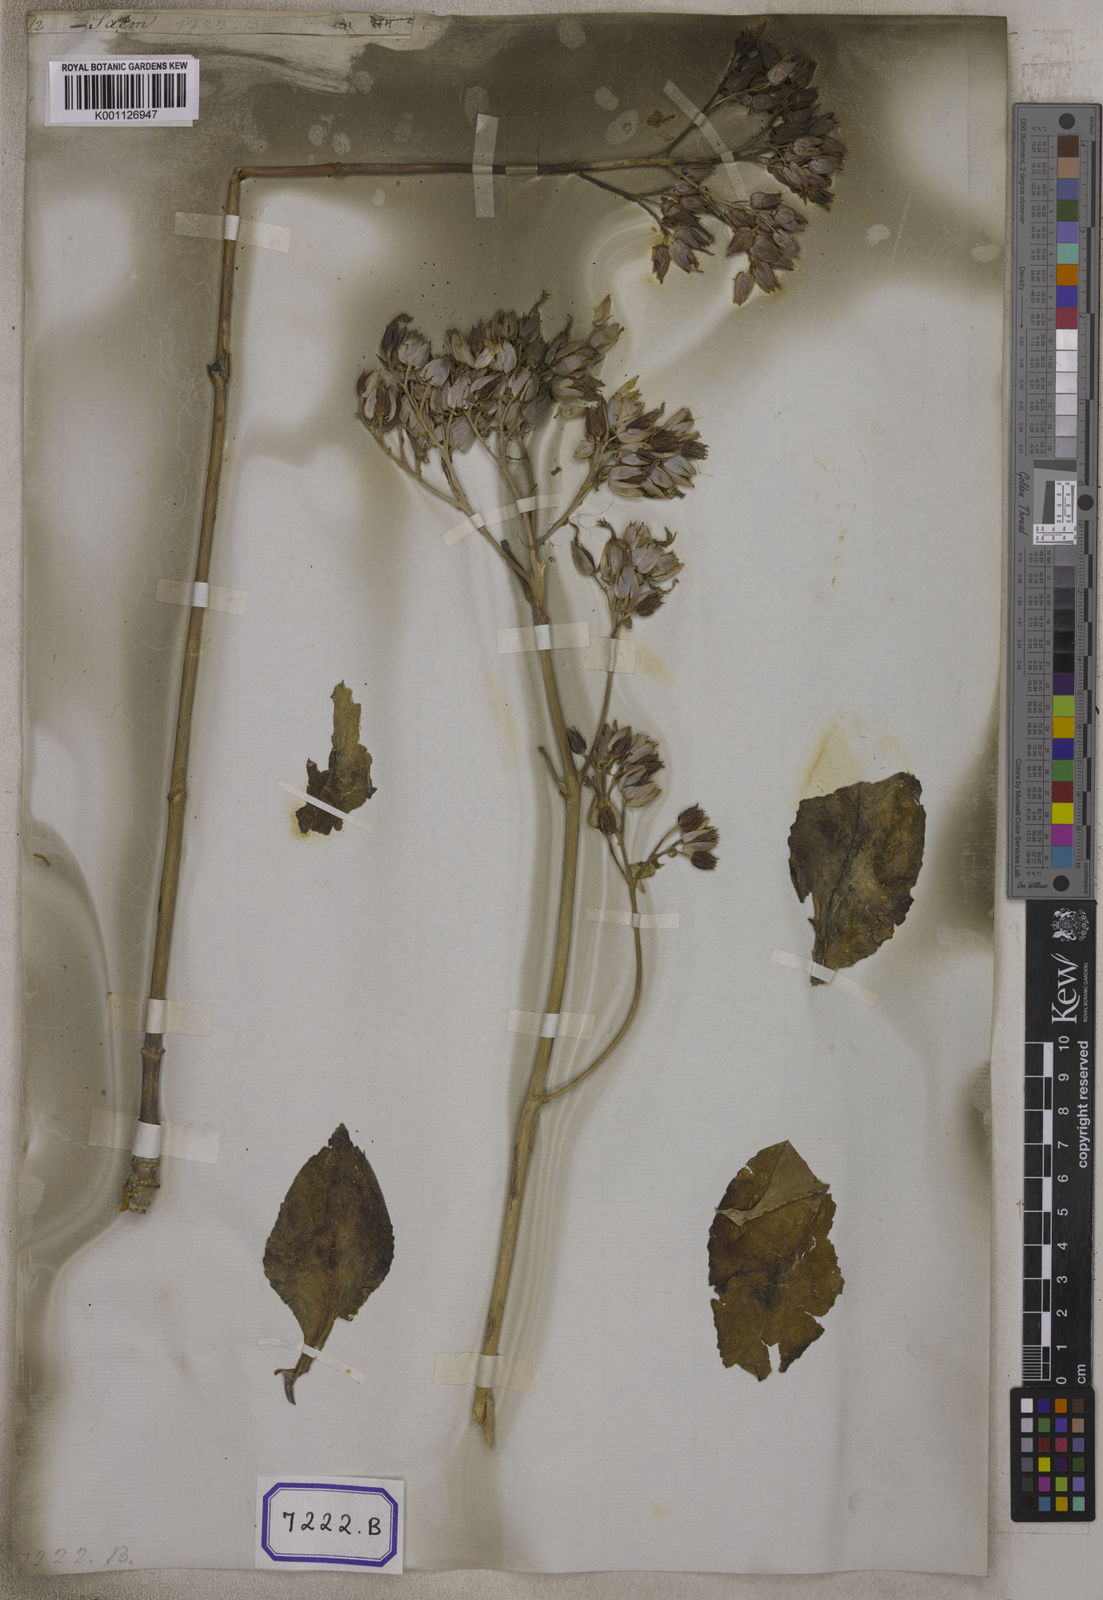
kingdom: Plantae
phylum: Tracheophyta
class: Magnoliopsida
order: Saxifragales
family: Crassulaceae
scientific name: Crassulaceae
